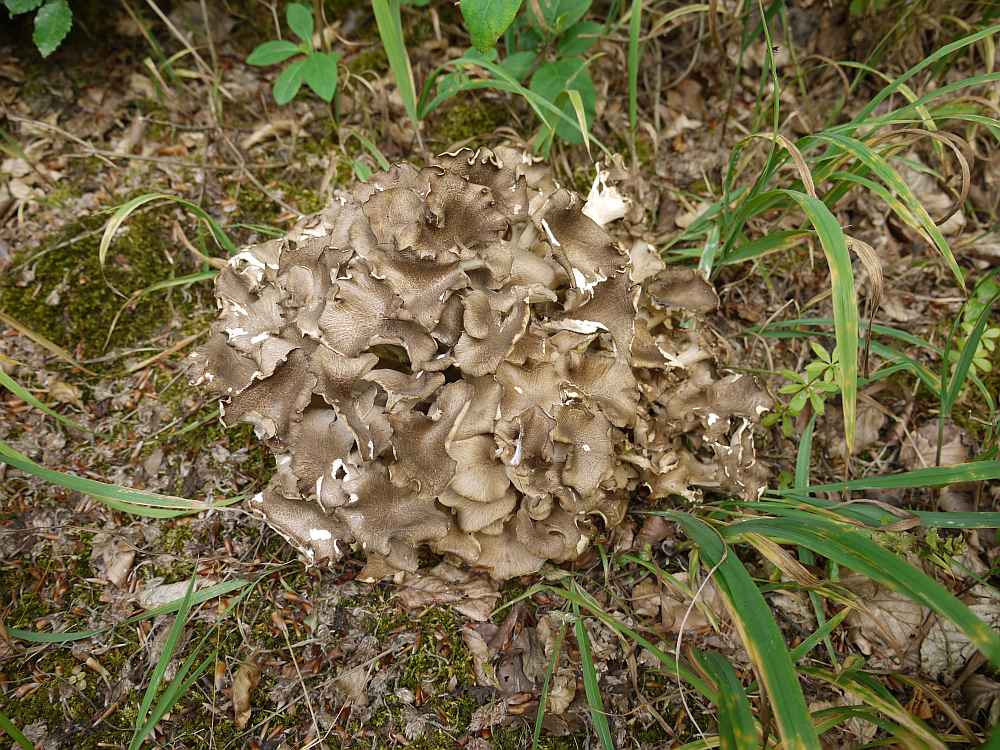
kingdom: Fungi
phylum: Basidiomycota
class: Agaricomycetes
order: Polyporales
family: Polyporaceae
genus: Polyporus
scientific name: Polyporus umbellatus
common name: skærmformet stilkporesvamp
